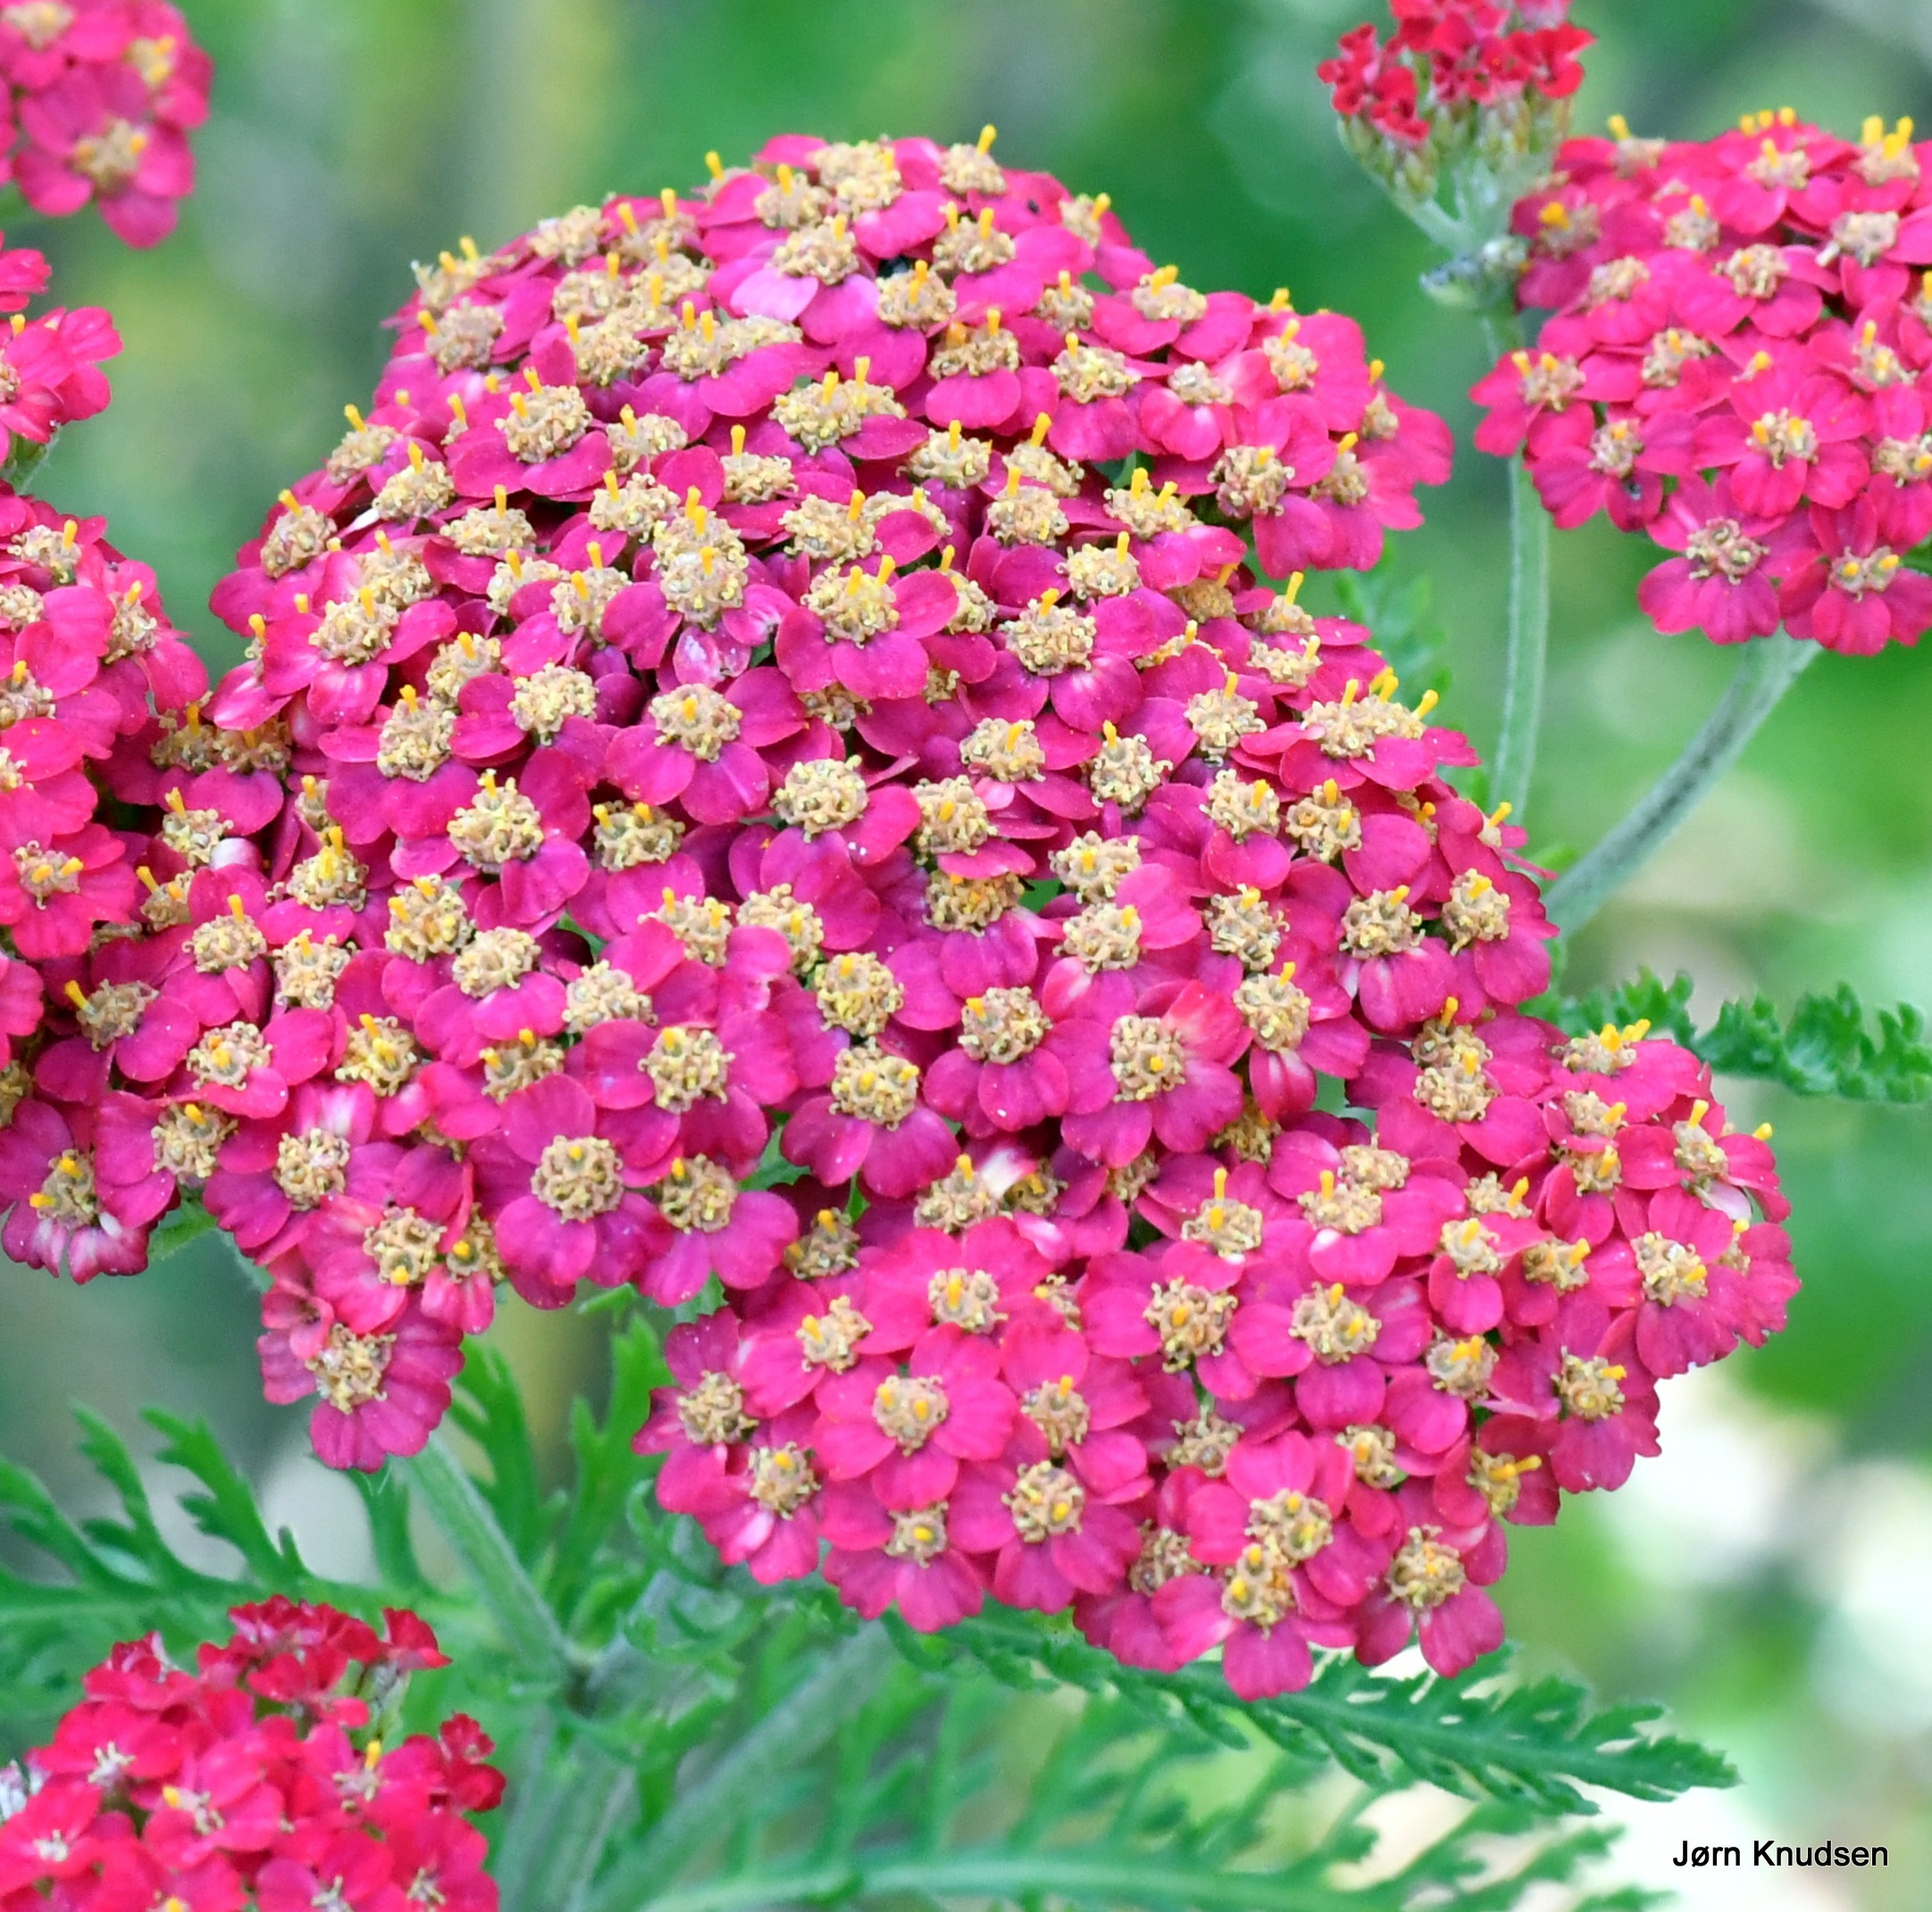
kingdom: Plantae
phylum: Tracheophyta
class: Magnoliopsida
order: Asterales
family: Asteraceae
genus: Achillea
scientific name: Achillea millefolium
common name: Almindelig røllike
